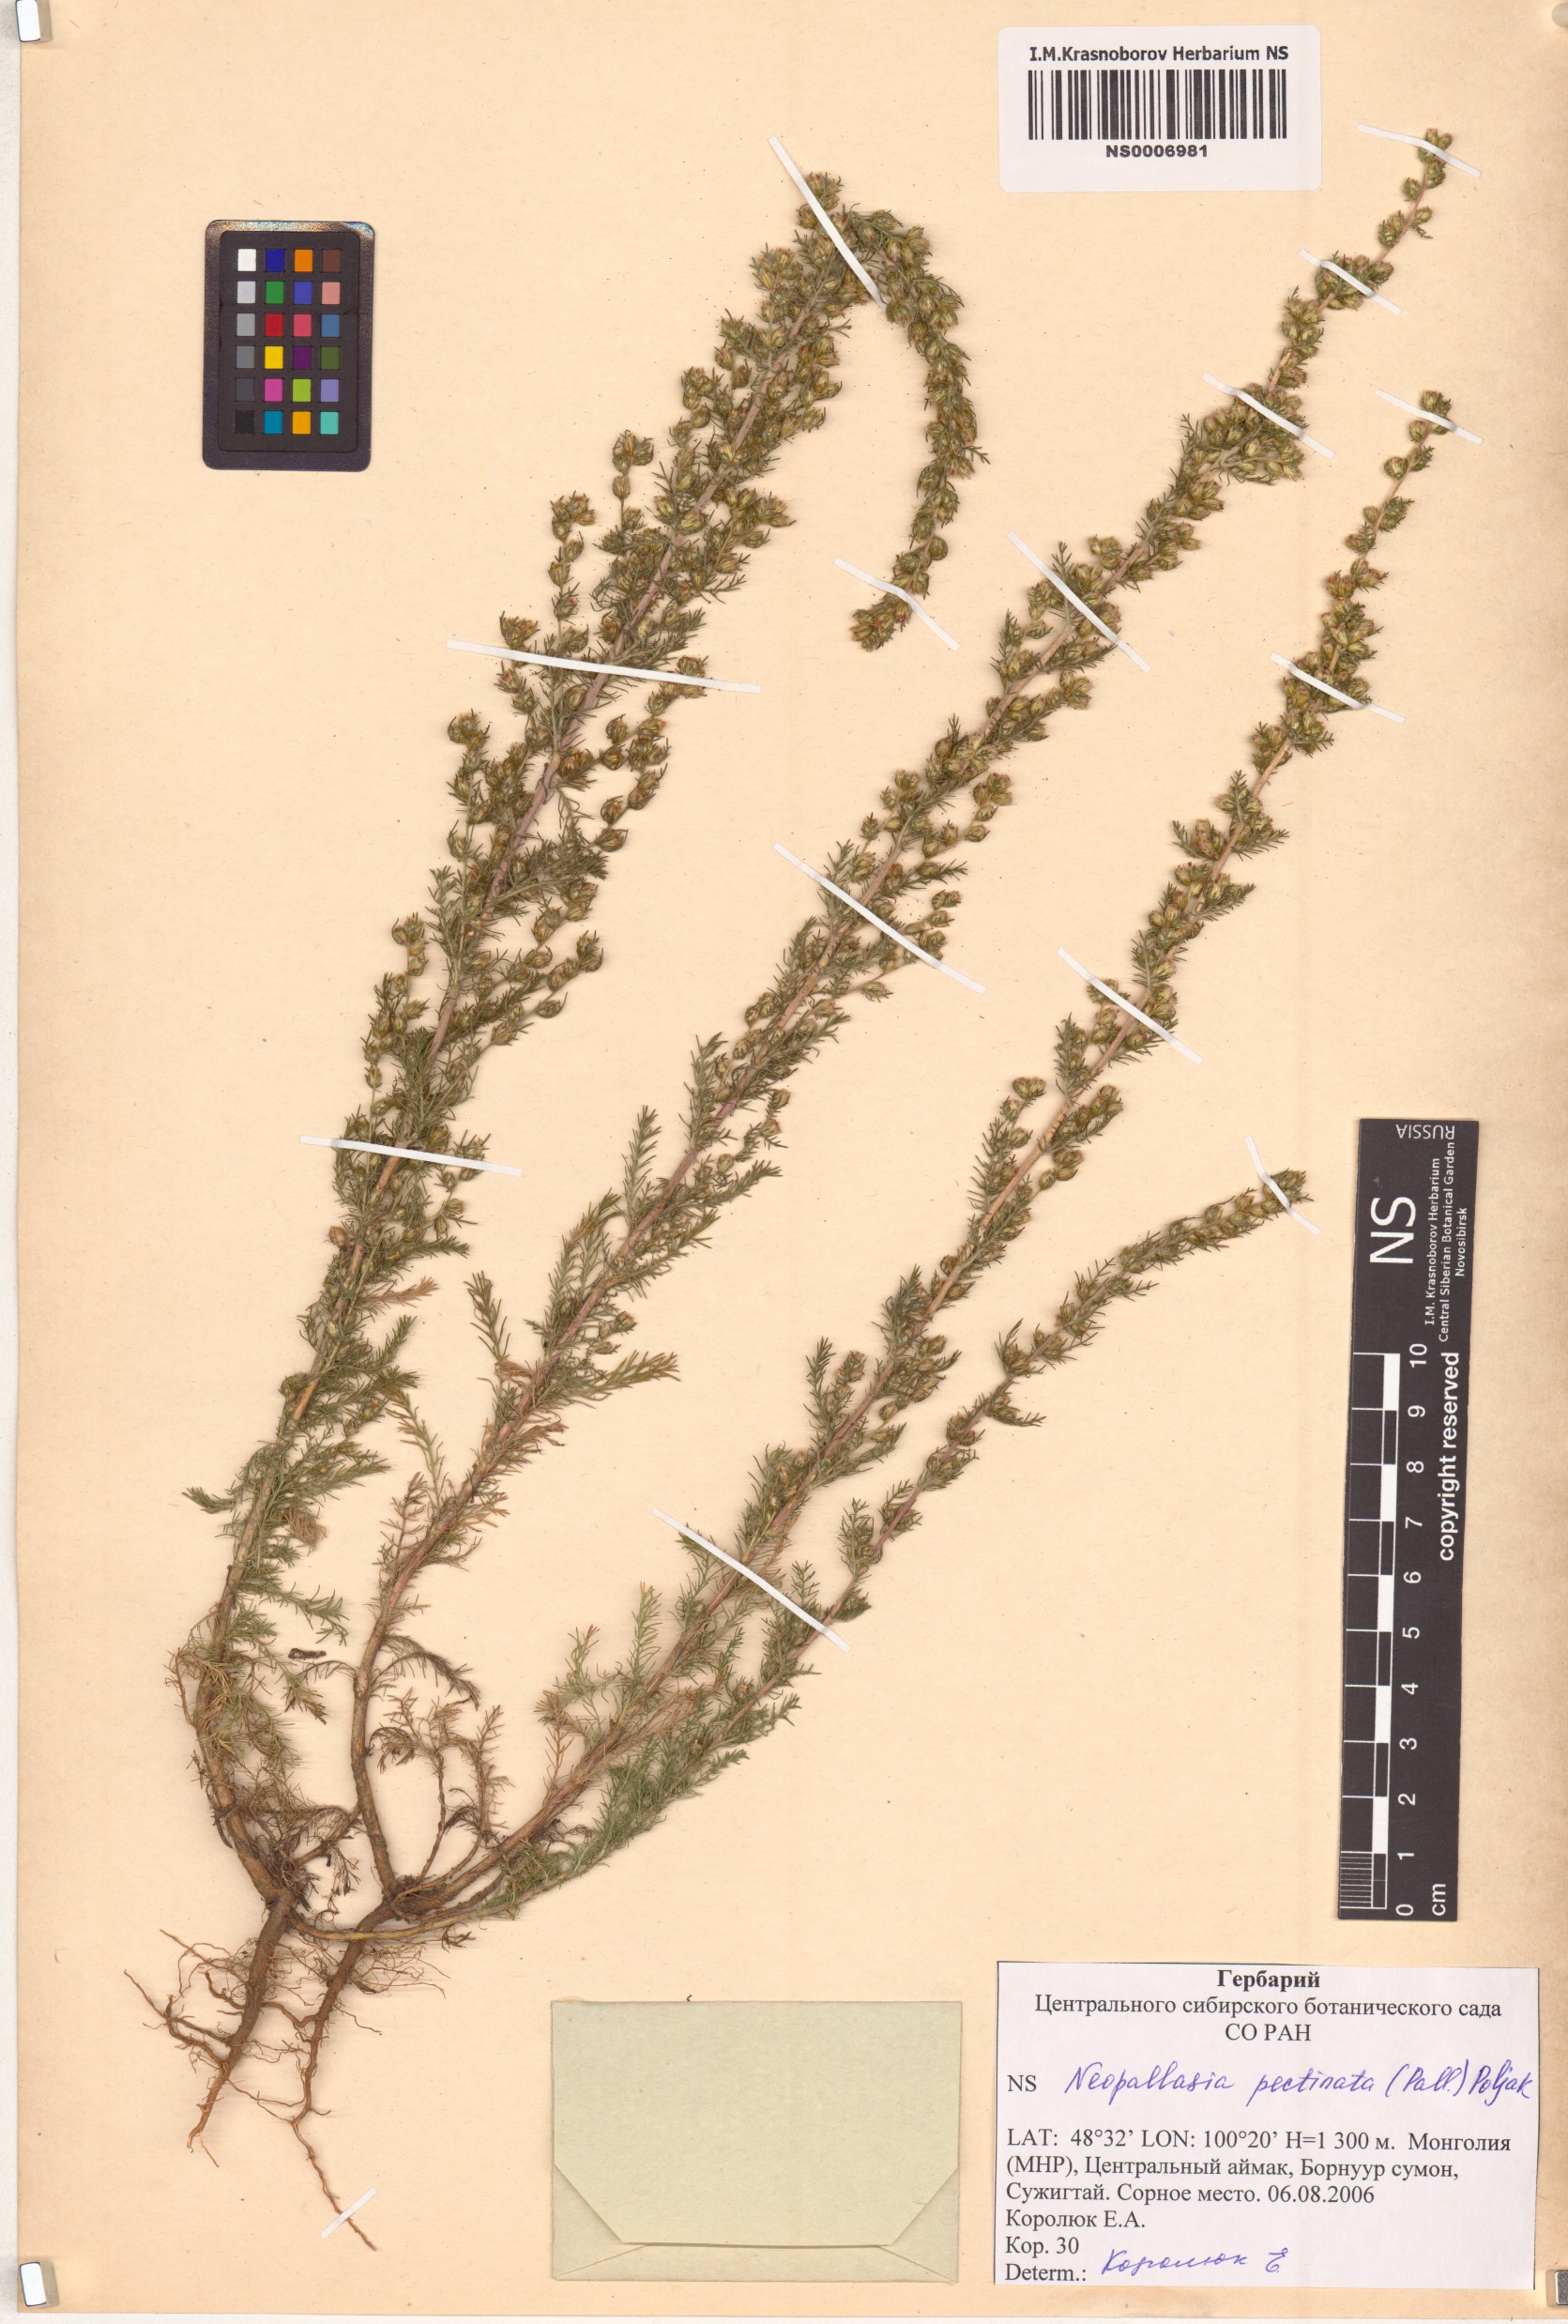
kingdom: Plantae
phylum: Tracheophyta
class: Magnoliopsida
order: Asterales
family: Asteraceae
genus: Neopallasia
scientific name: Neopallasia pectinata
